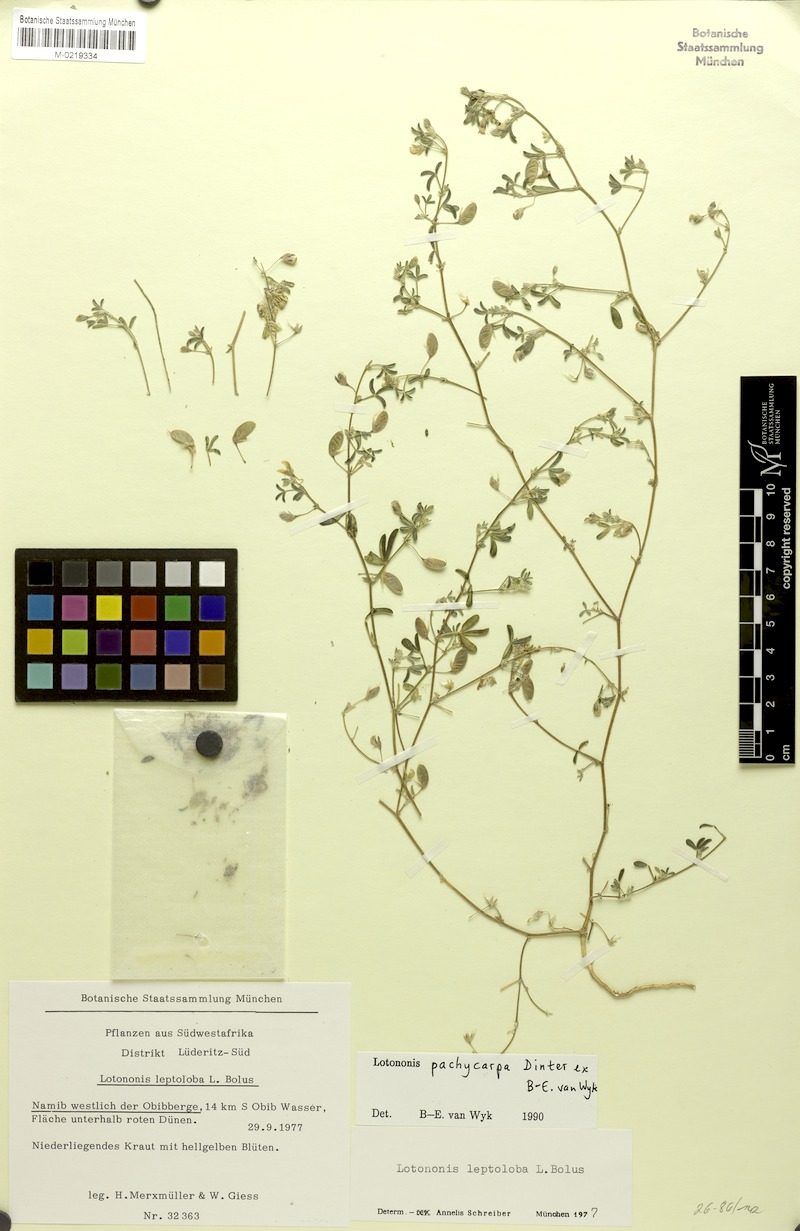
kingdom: Plantae
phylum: Tracheophyta
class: Magnoliopsida
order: Fabales
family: Fabaceae
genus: Lotononis
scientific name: Lotononis pachycarpa
